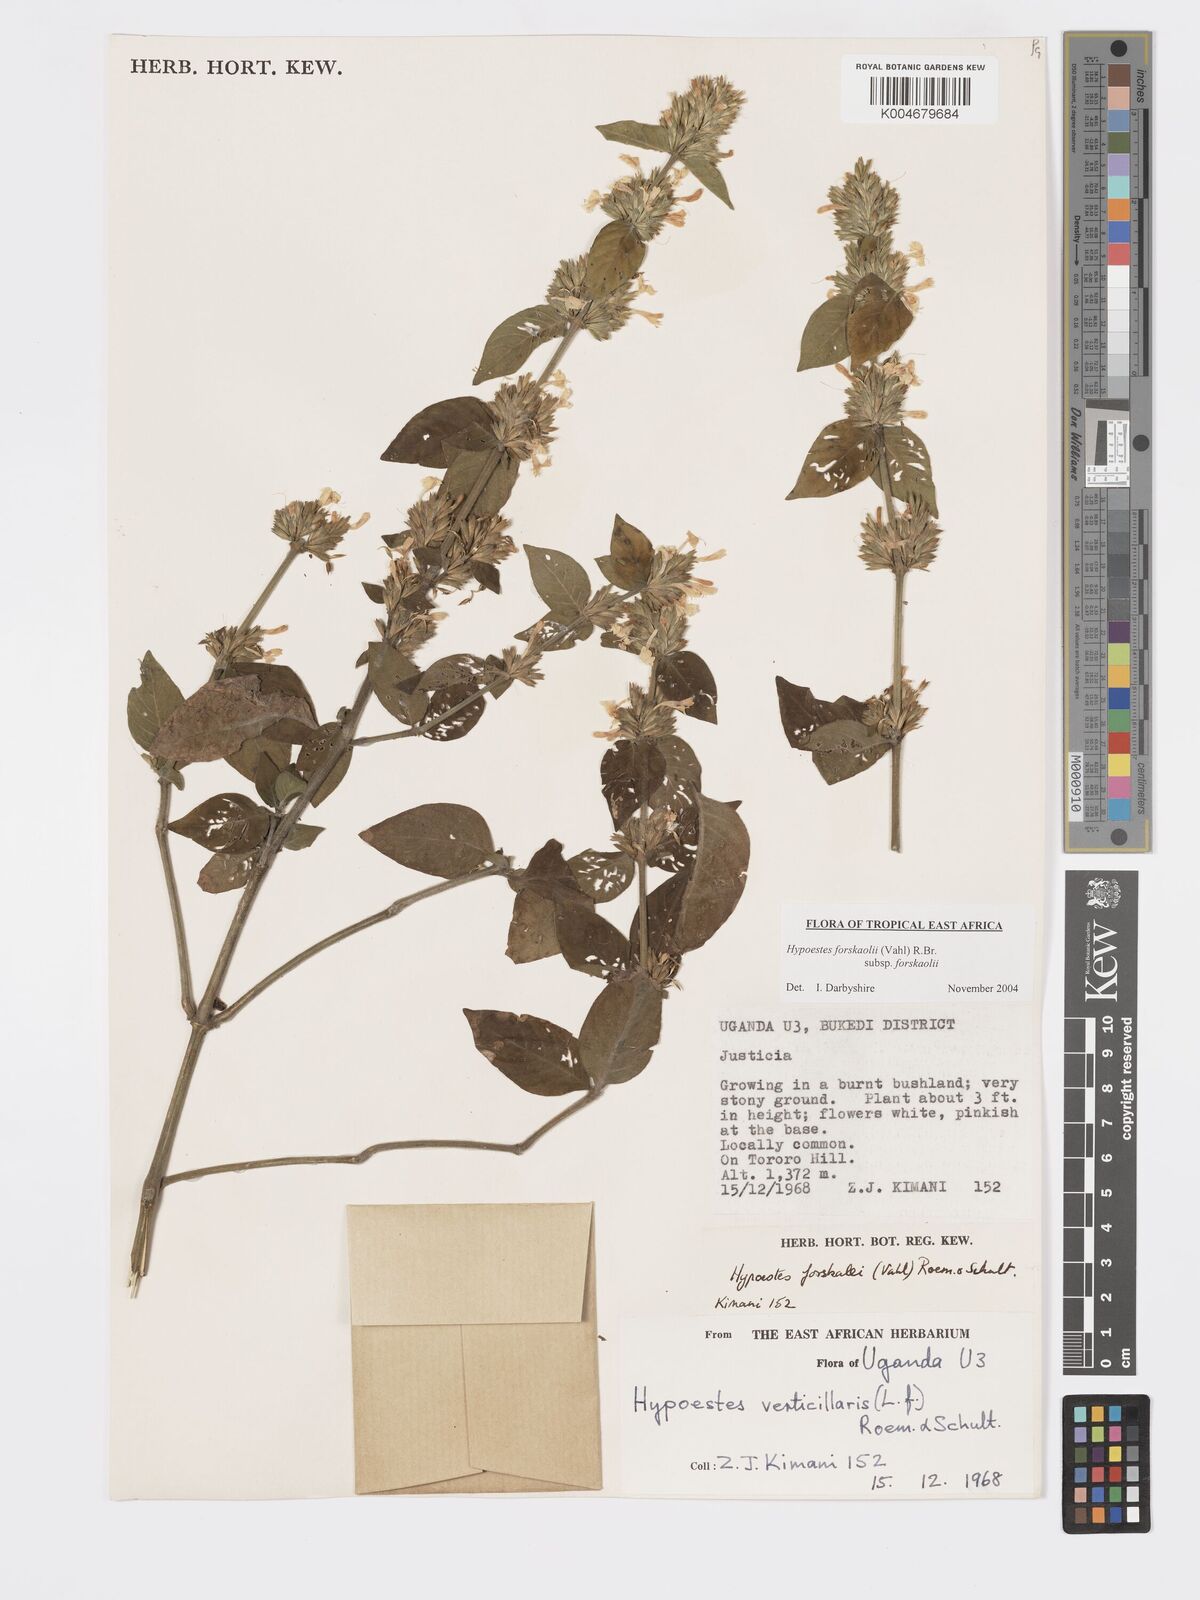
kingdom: Plantae
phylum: Tracheophyta
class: Magnoliopsida
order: Lamiales
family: Acanthaceae
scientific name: Acanthaceae
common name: Acanthaceae
